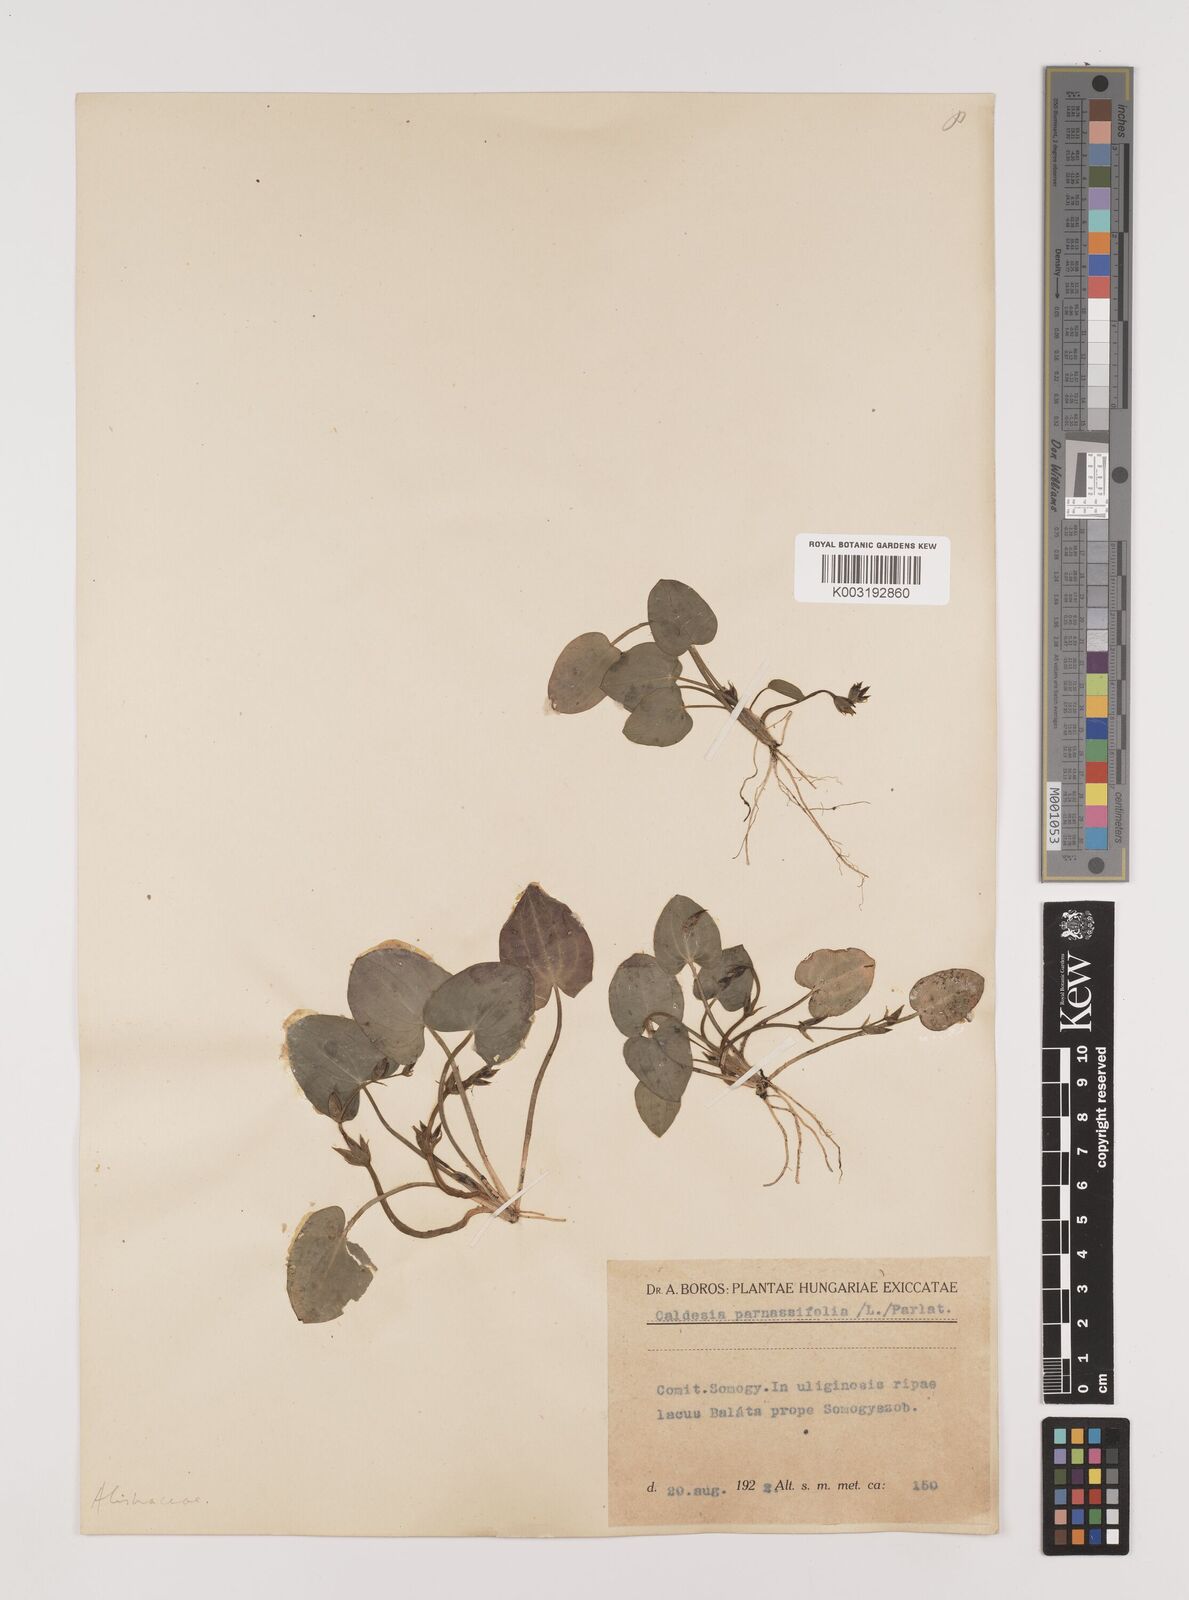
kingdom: Plantae
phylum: Tracheophyta
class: Liliopsida
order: Alismatales
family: Alismataceae
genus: Caldesia
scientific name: Caldesia parnassifolia
